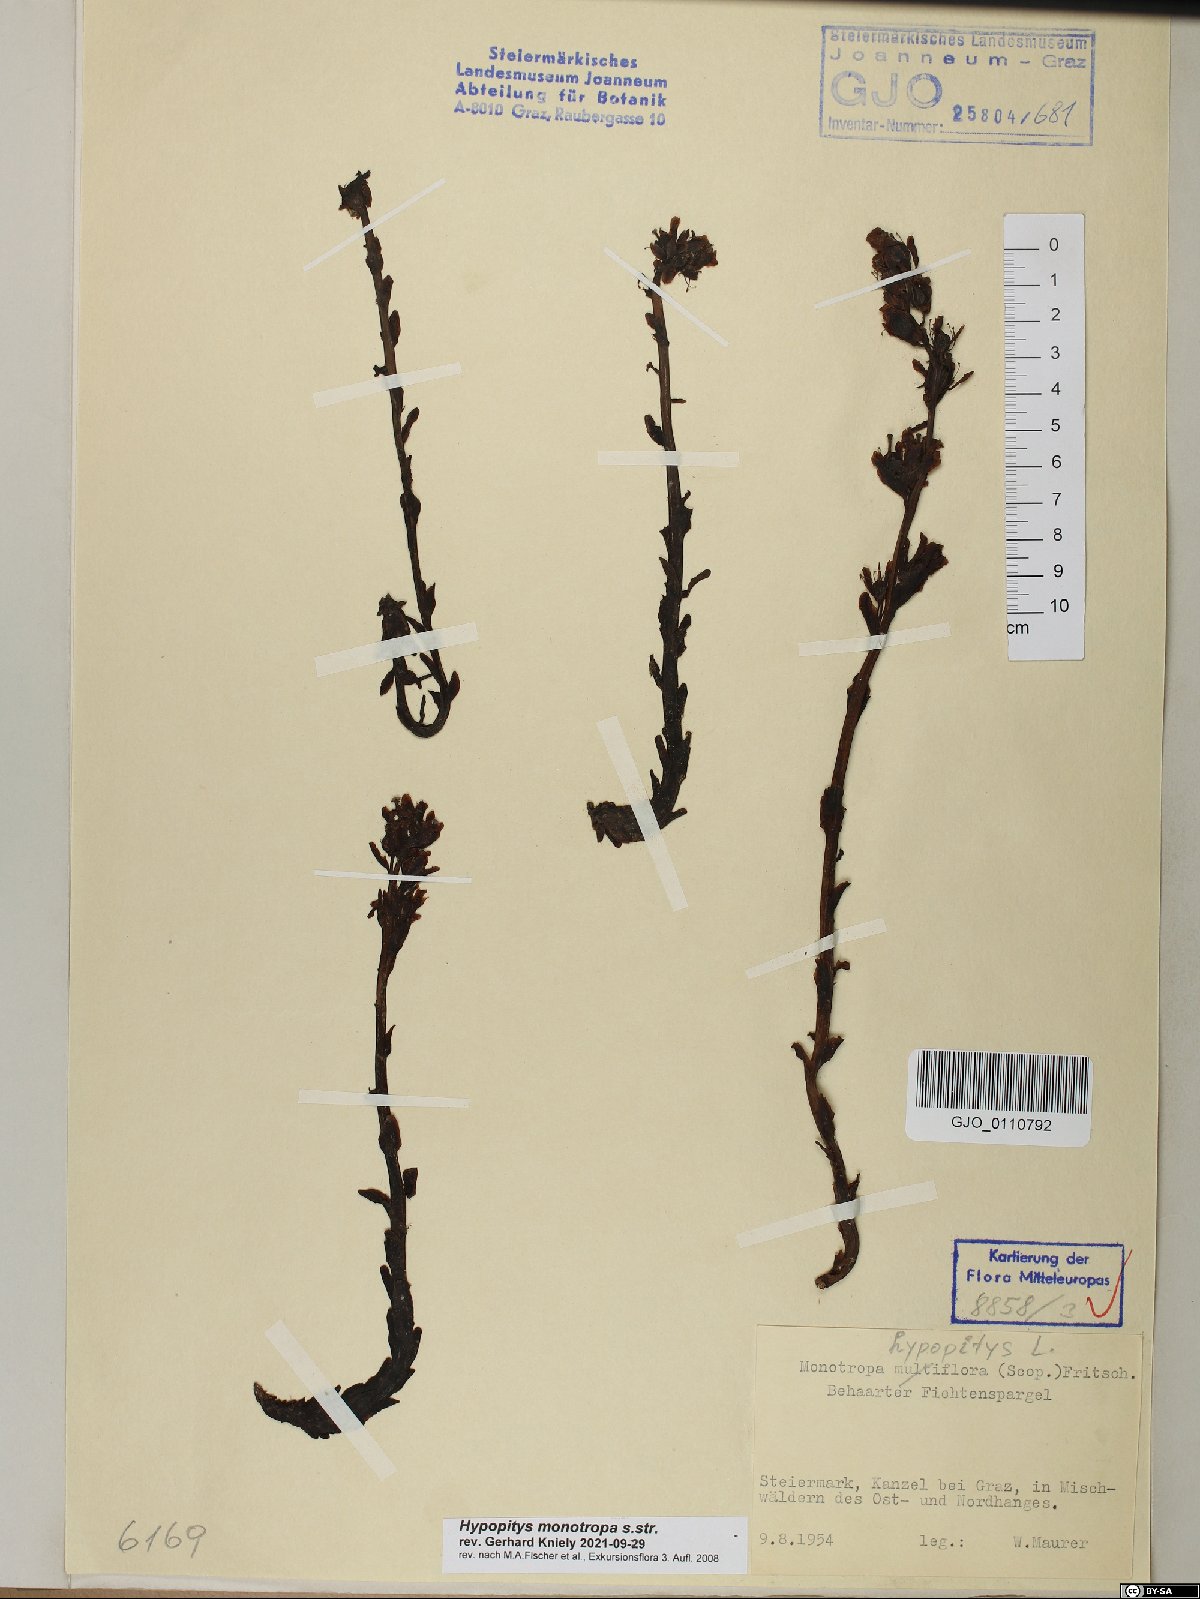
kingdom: Plantae
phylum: Tracheophyta
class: Magnoliopsida
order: Ericales
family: Ericaceae
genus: Hypopitys
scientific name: Hypopitys monotropa
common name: Yellow bird's-nest
